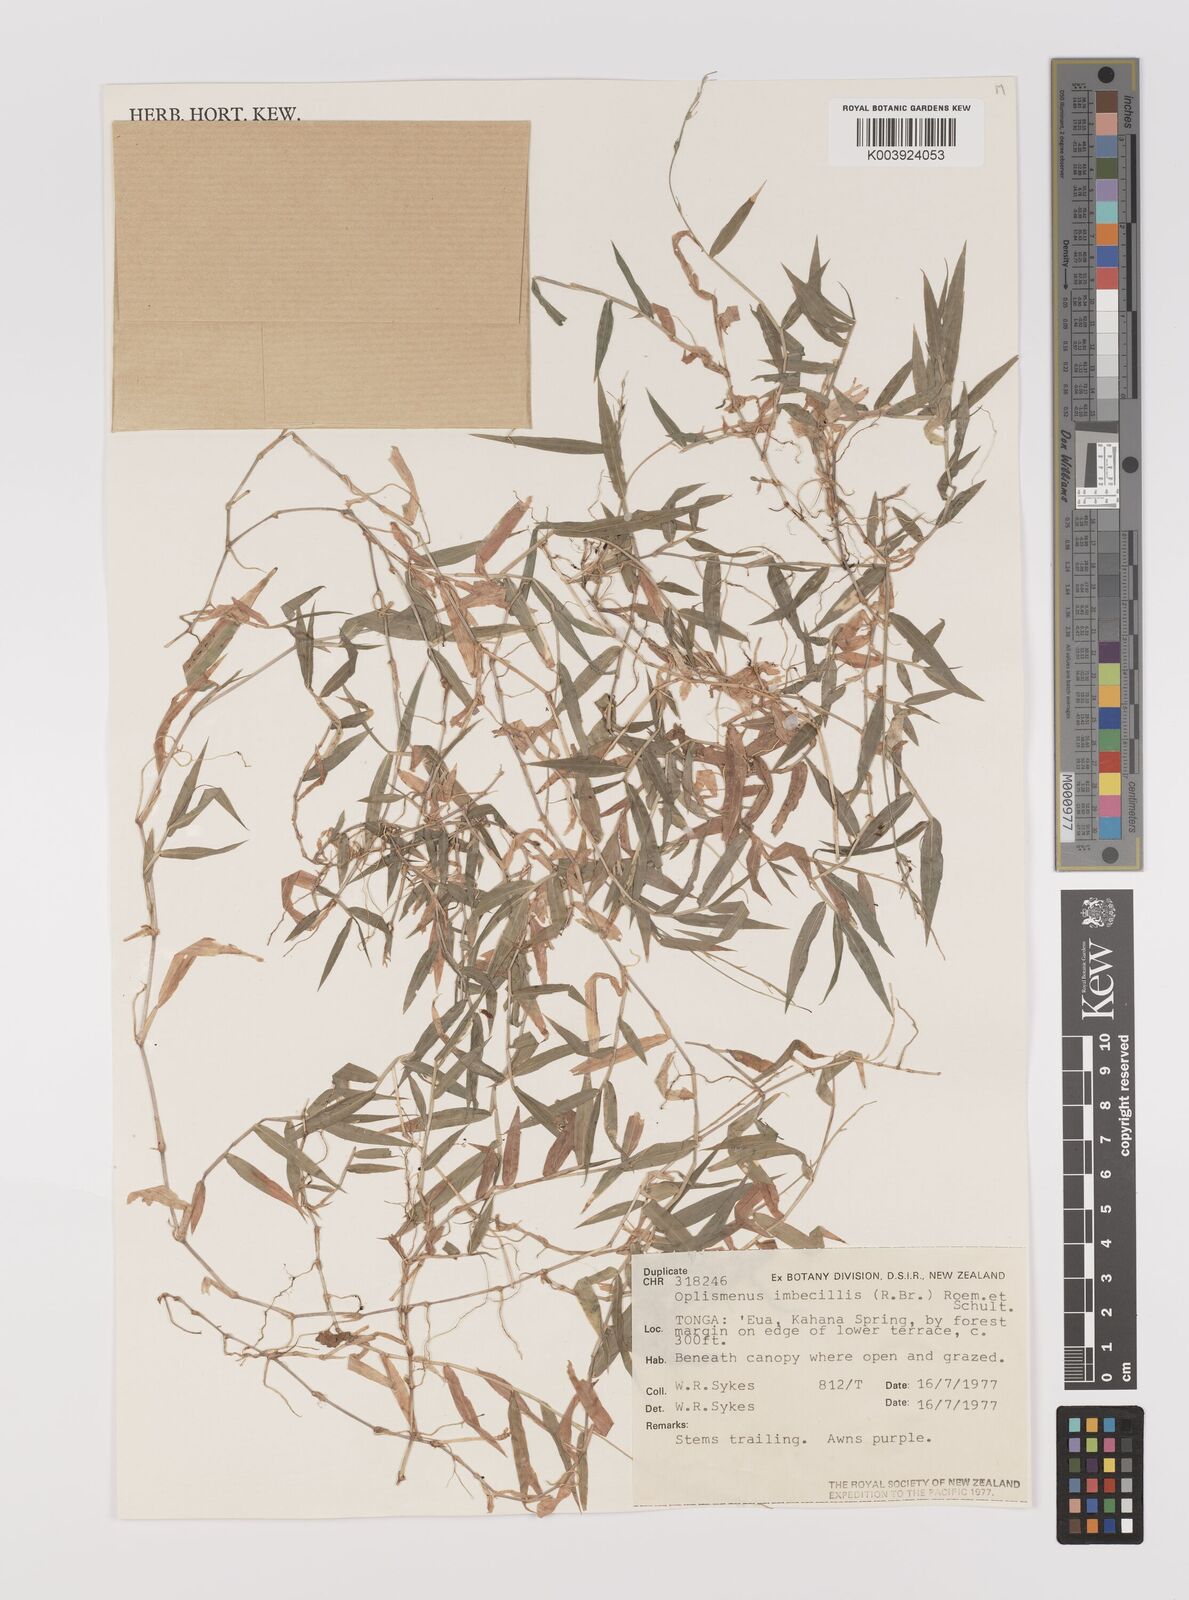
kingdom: Plantae
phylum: Tracheophyta
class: Liliopsida
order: Poales
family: Poaceae
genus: Oplismenus
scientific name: Oplismenus hirtellus
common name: Basketgrass
